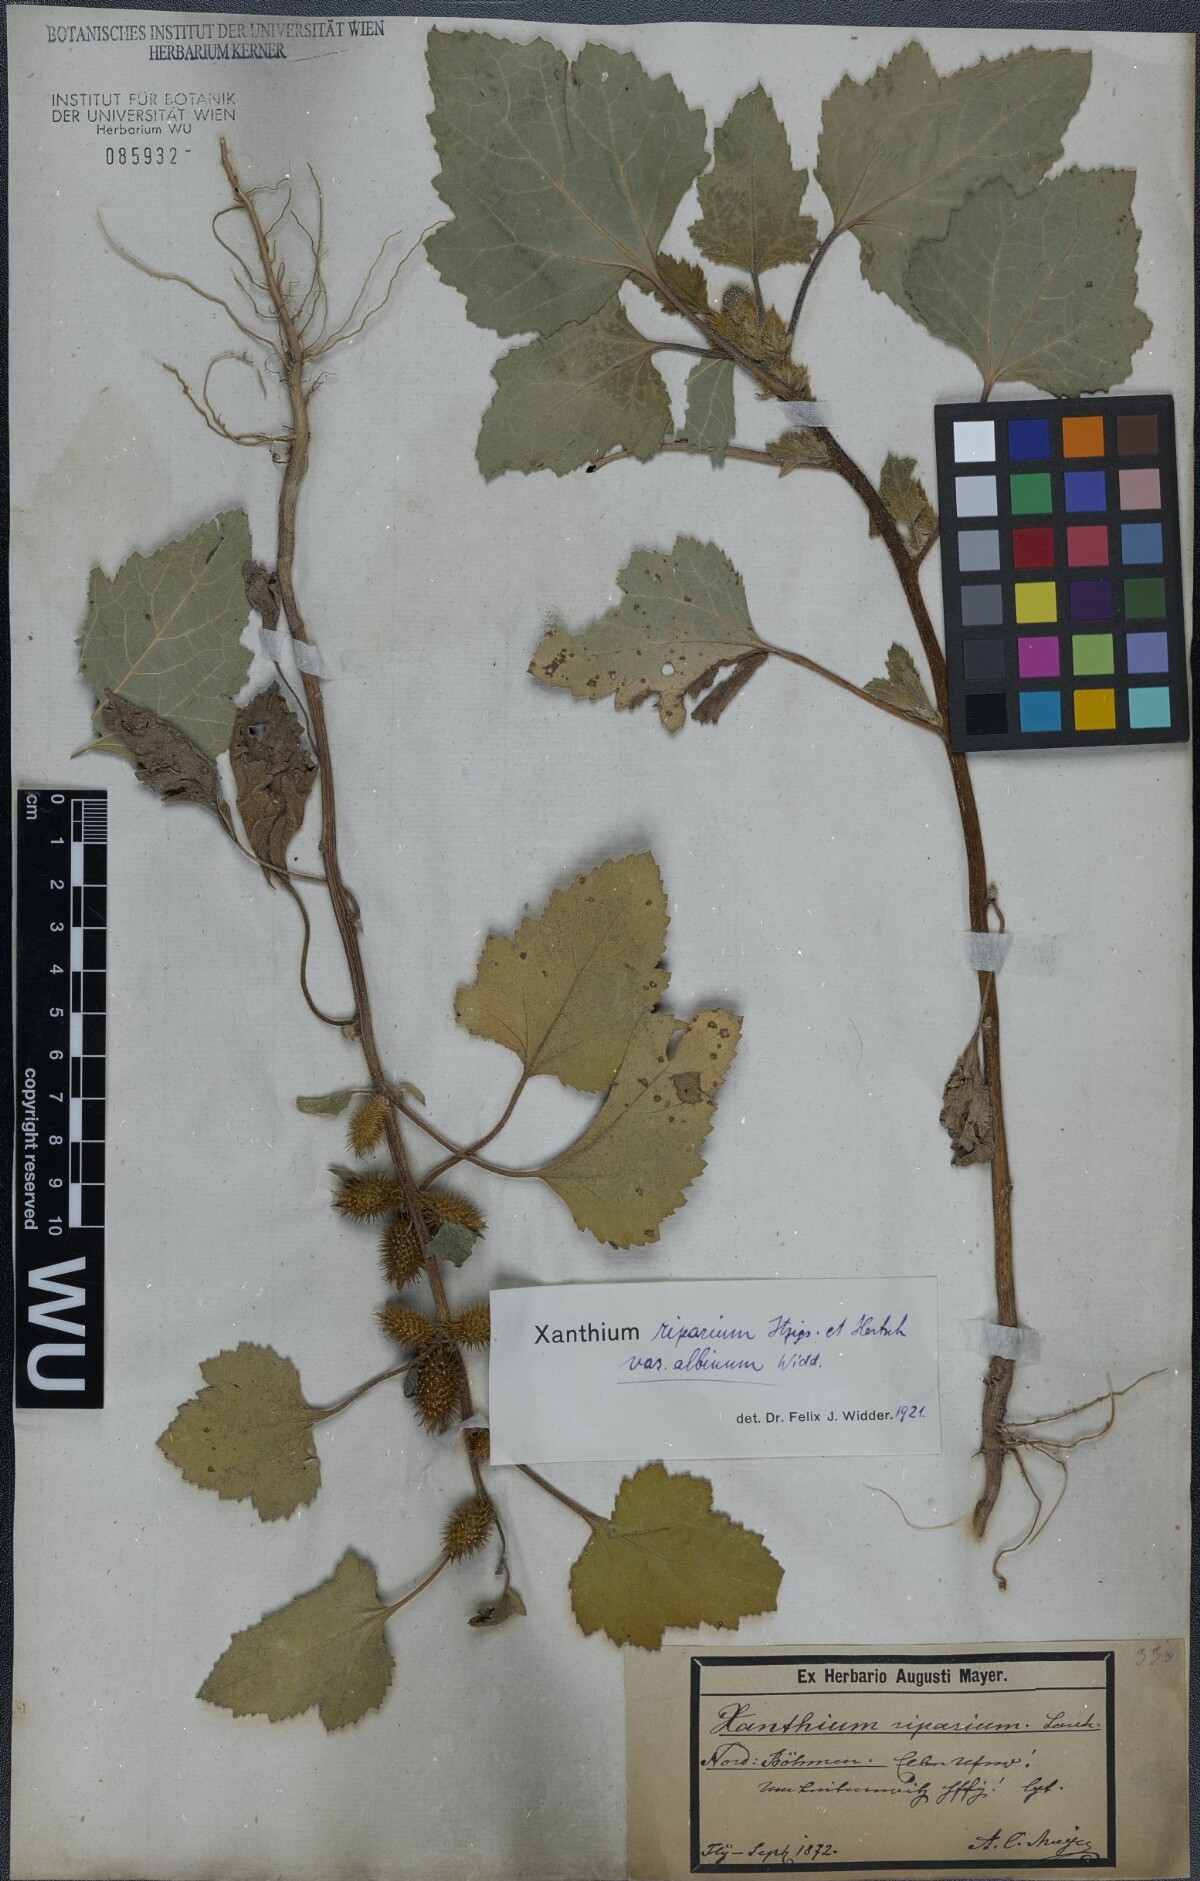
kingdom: Plantae
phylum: Tracheophyta
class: Magnoliopsida
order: Asterales
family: Asteraceae
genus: Xanthium
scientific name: Xanthium orientale
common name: Californian burr
